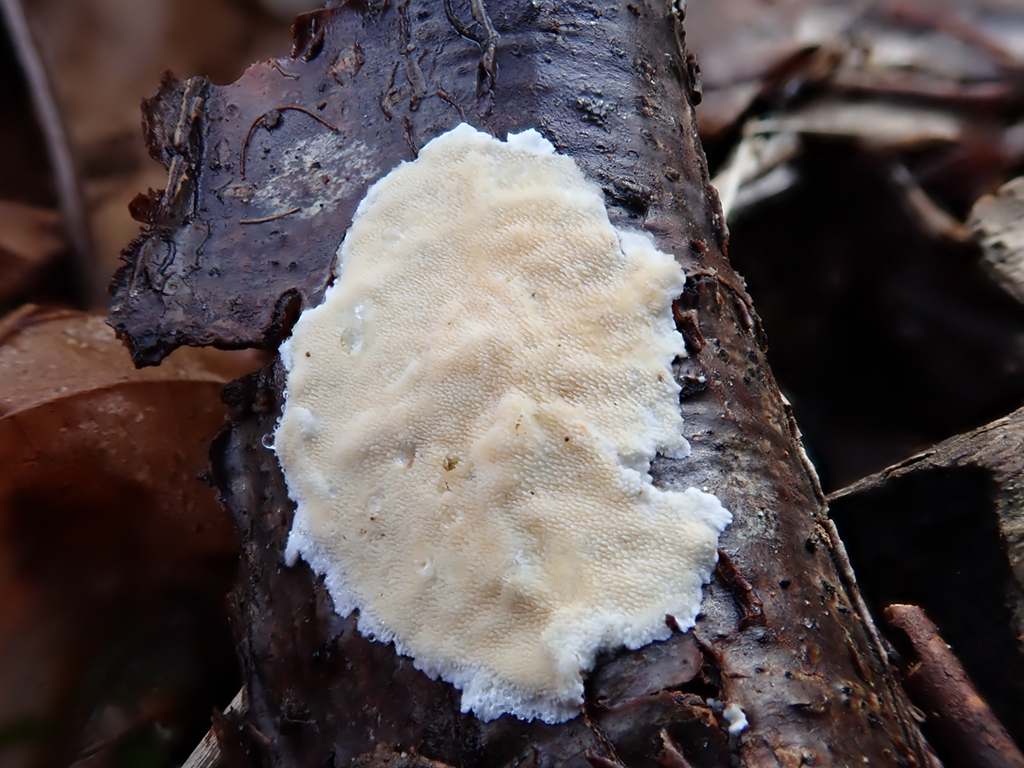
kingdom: Fungi
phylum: Basidiomycota
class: Agaricomycetes
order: Polyporales
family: Steccherinaceae
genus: Steccherinum
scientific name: Steccherinum ochraceum
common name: almindelig skønpig
